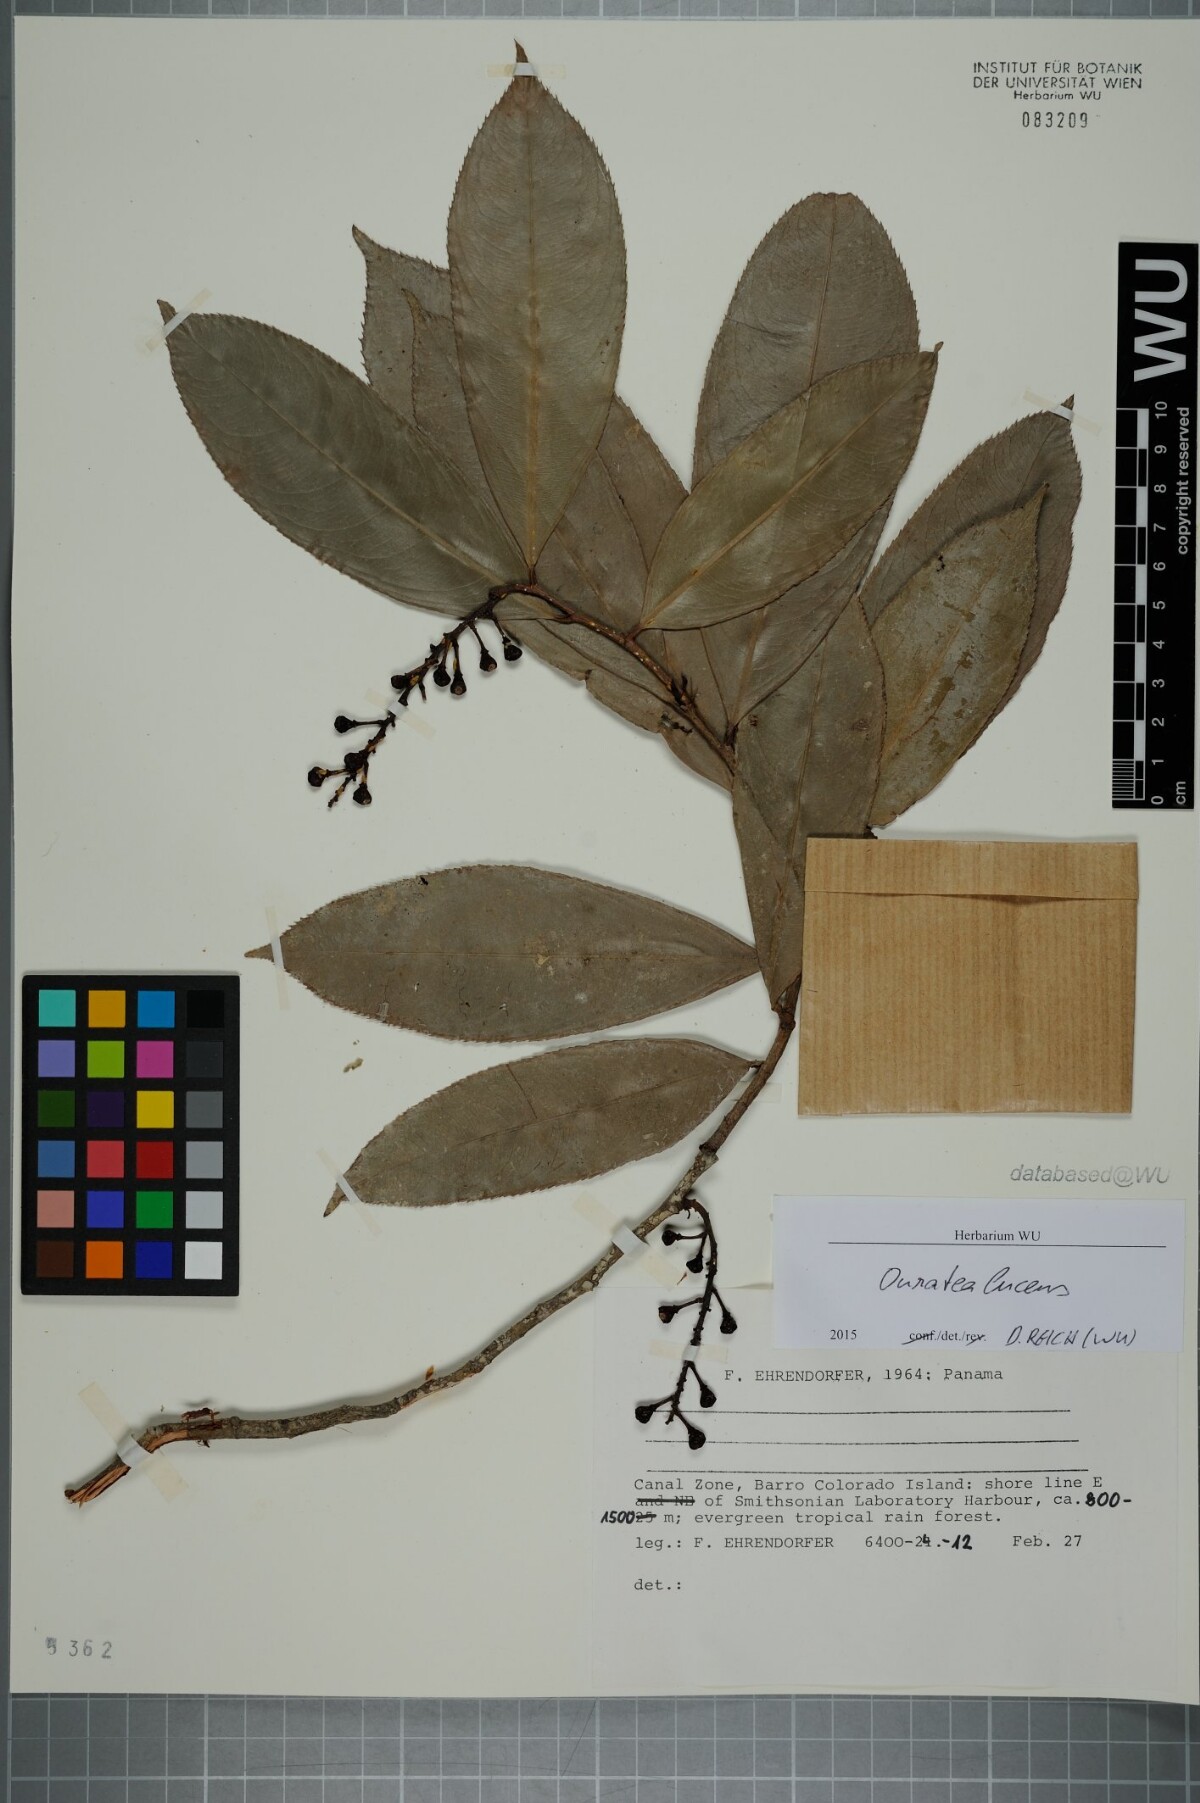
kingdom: Plantae
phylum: Tracheophyta
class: Magnoliopsida
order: Malpighiales
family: Ochnaceae
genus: Ouratea
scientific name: Ouratea lucens
